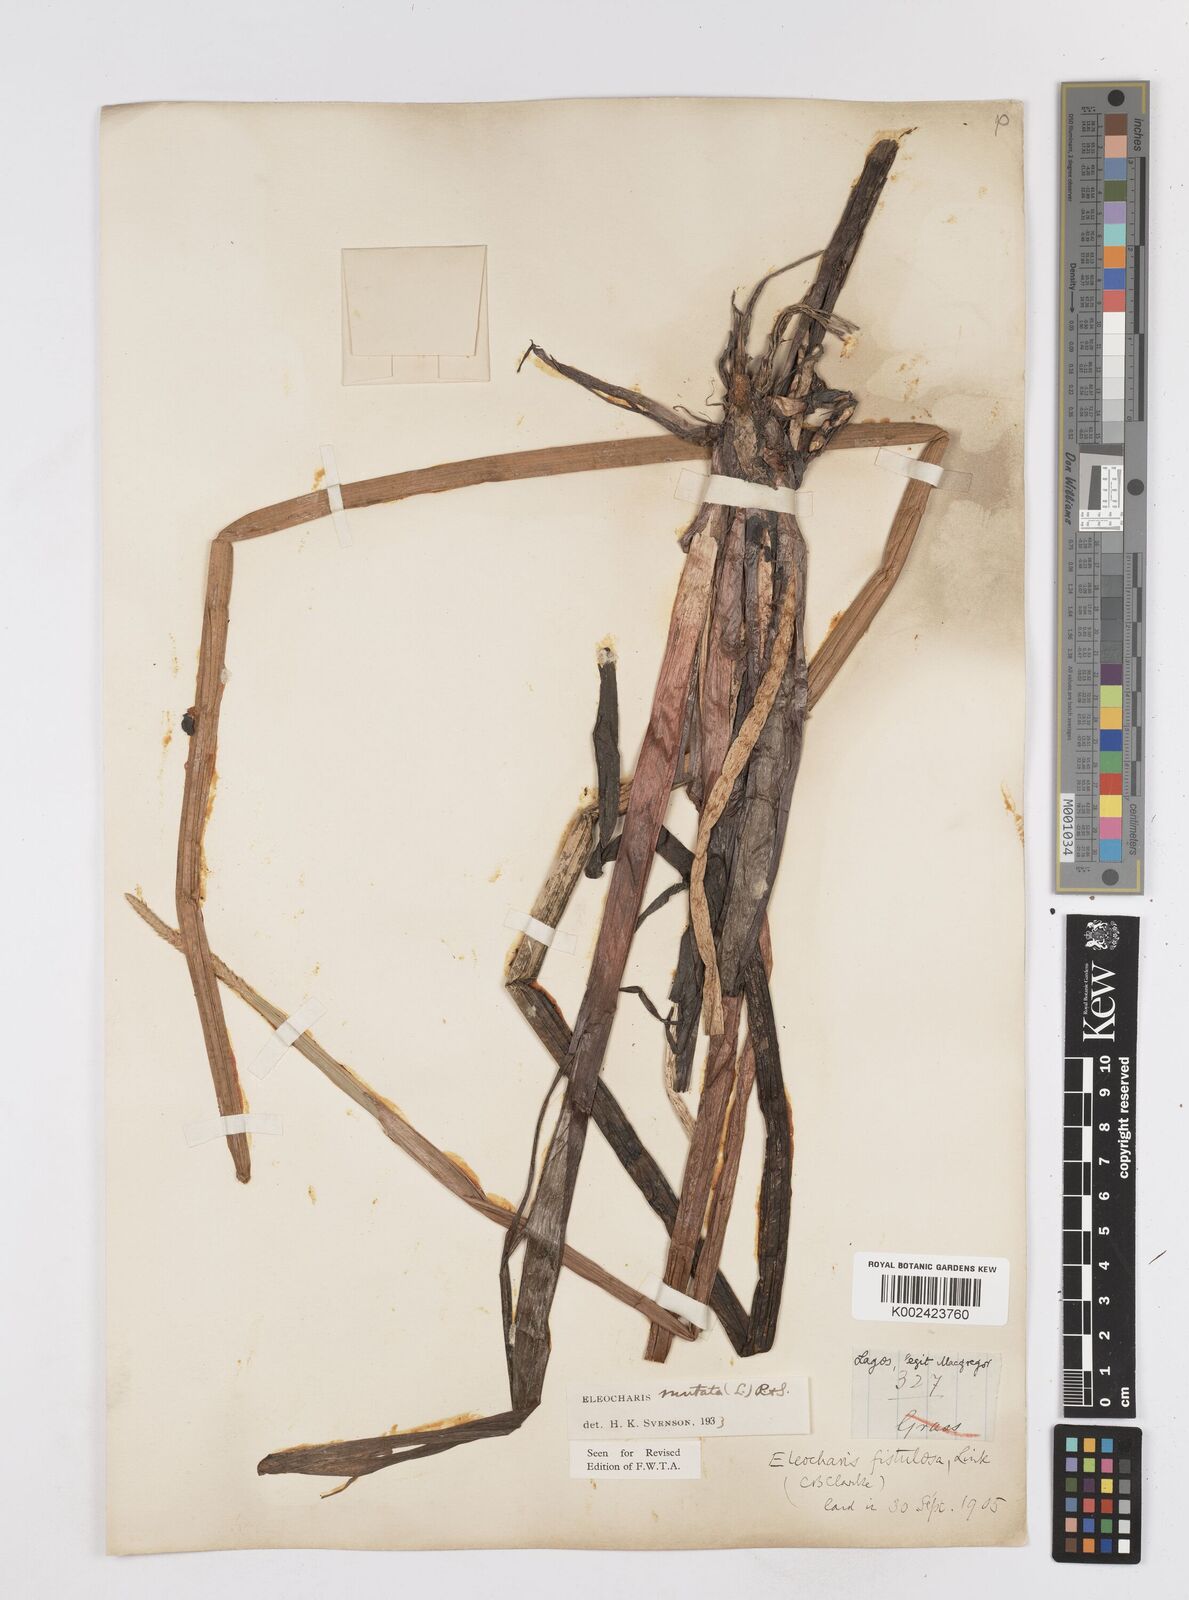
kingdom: Plantae
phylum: Tracheophyta
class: Liliopsida
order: Poales
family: Cyperaceae
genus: Eleocharis
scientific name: Eleocharis mutata
